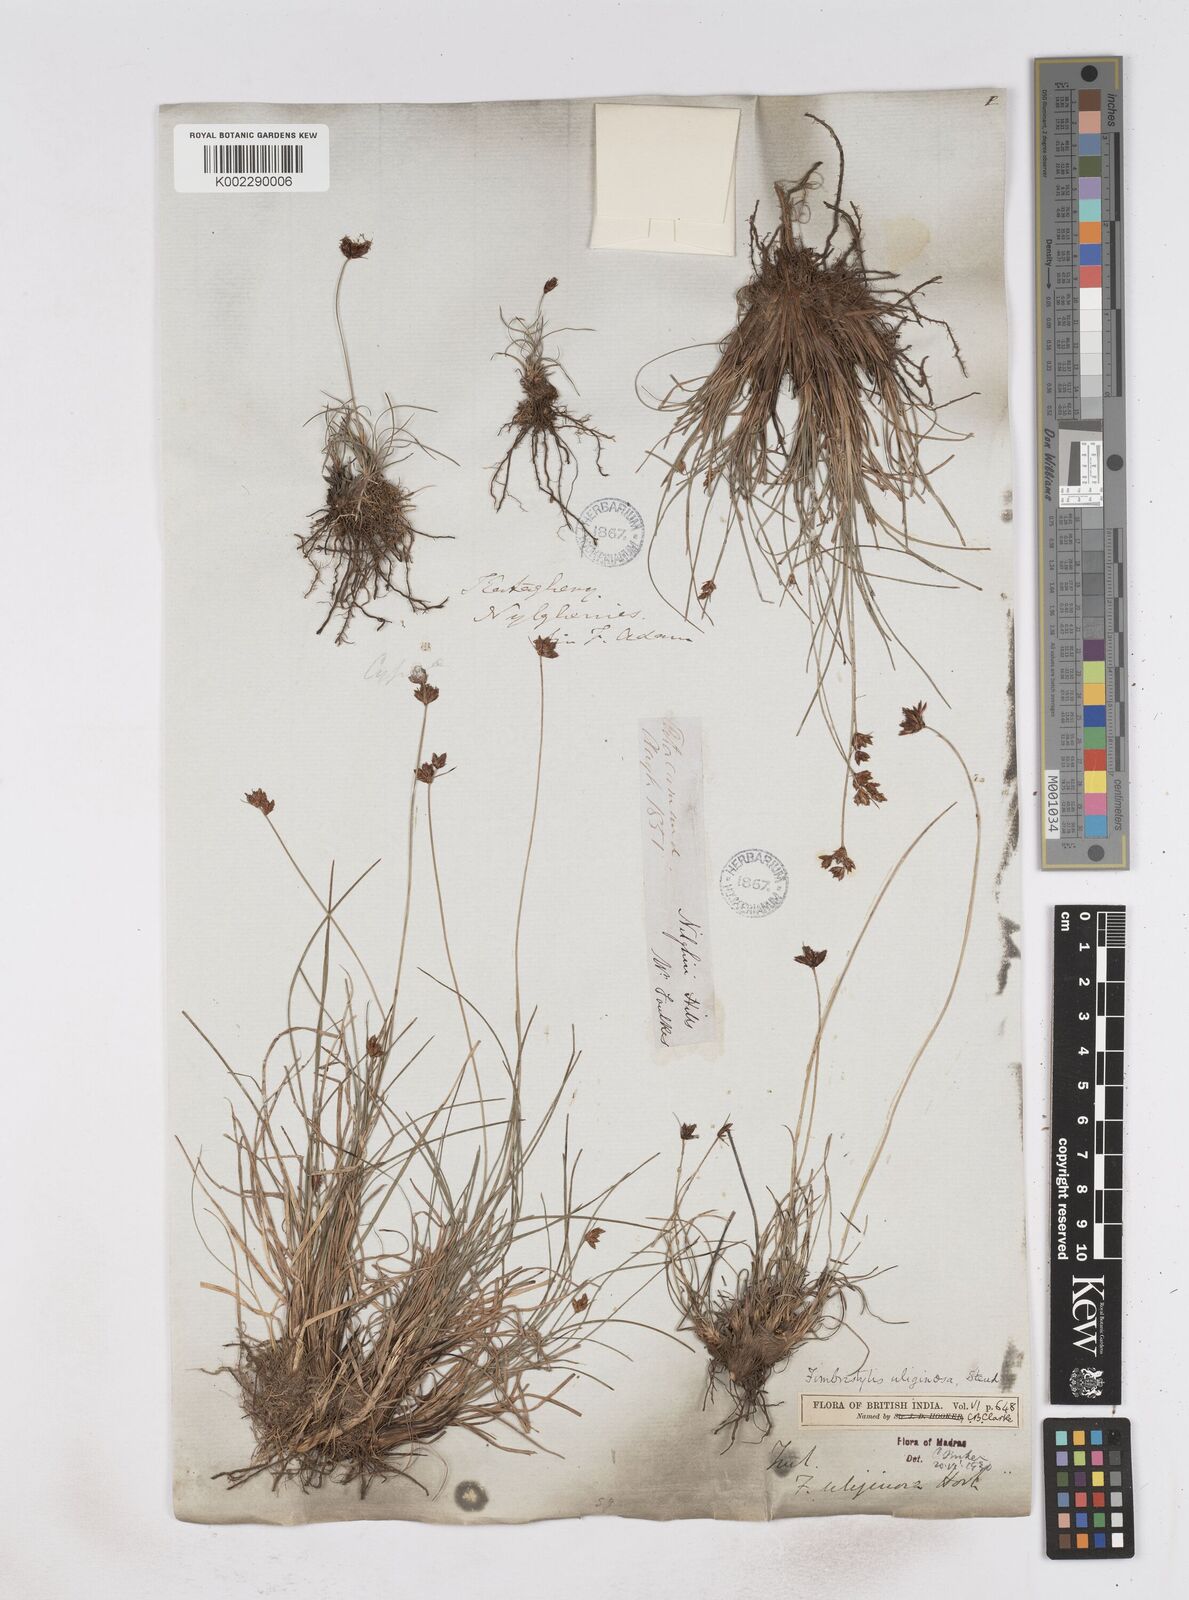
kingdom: Plantae
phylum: Tracheophyta
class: Liliopsida
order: Poales
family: Cyperaceae
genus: Fimbristylis
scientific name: Fimbristylis uliginosa
